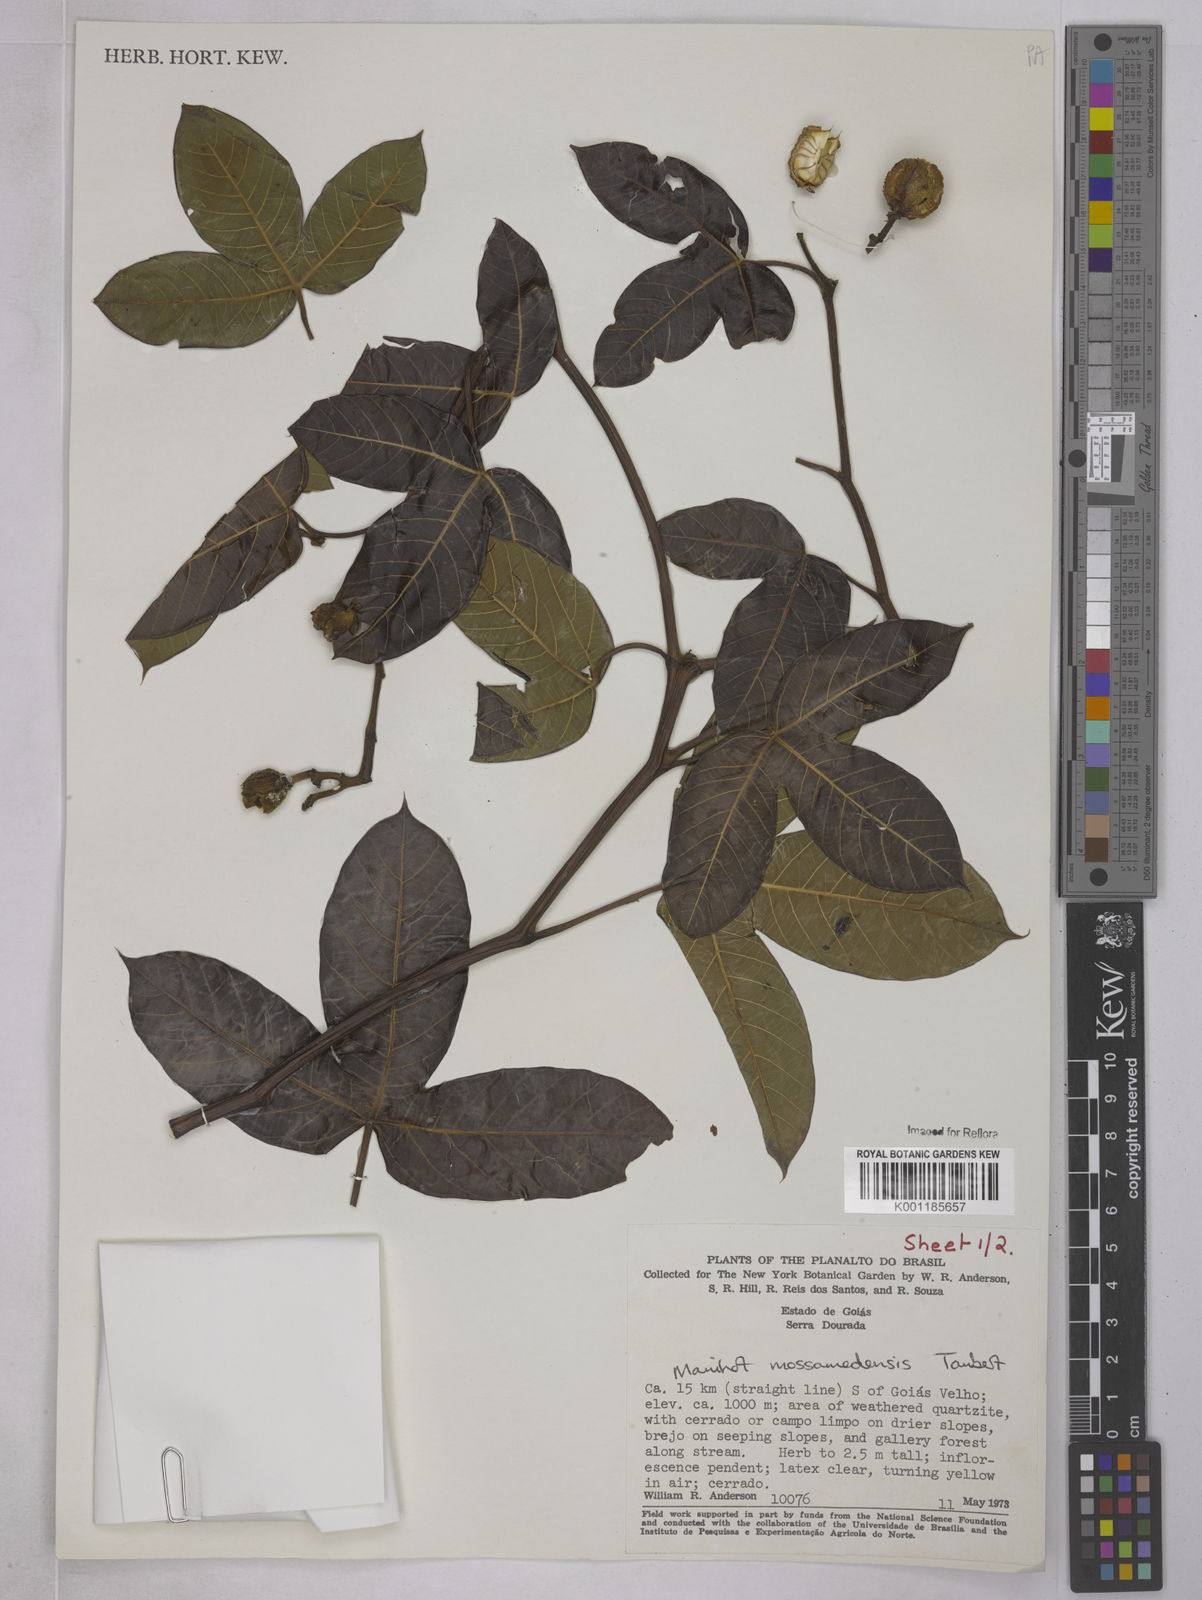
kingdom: Plantae
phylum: Tracheophyta
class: Magnoliopsida
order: Malpighiales
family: Euphorbiaceae
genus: Manihot
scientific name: Manihot mossamedensis
